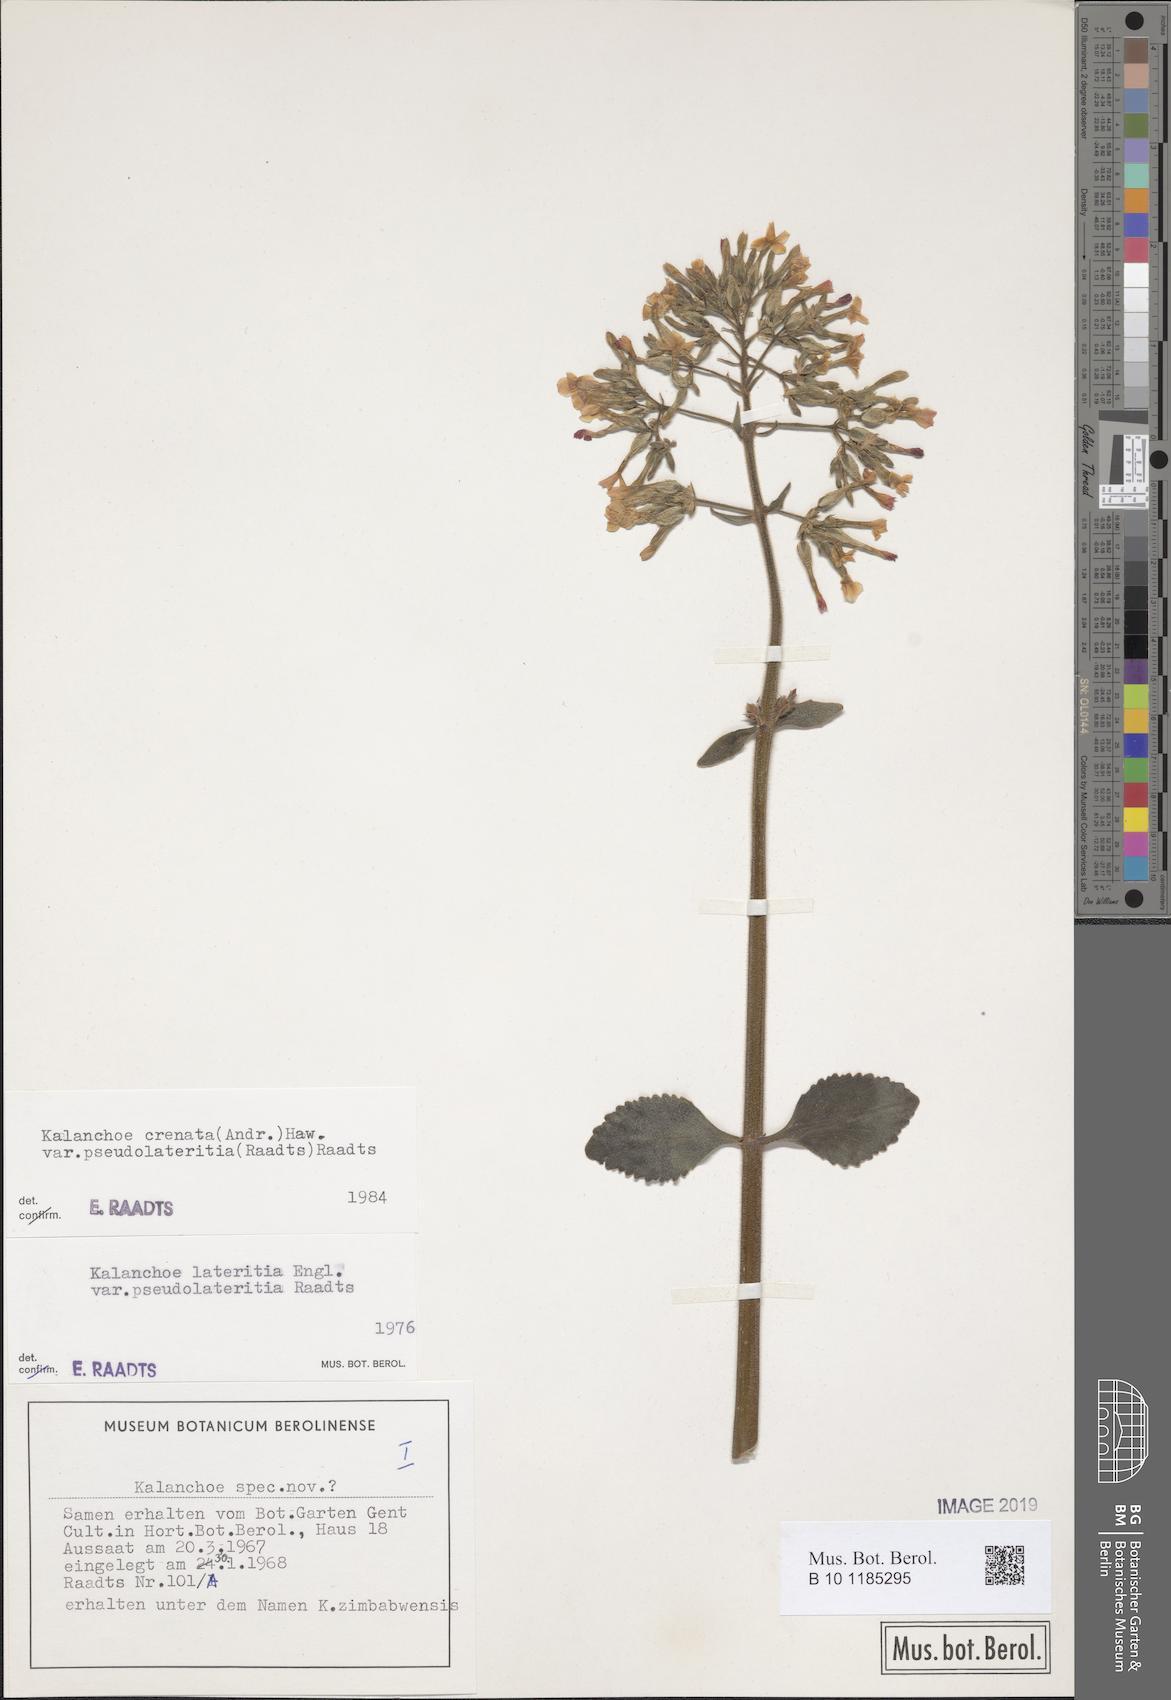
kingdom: Plantae
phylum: Tracheophyta
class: Magnoliopsida
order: Saxifragales
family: Crassulaceae
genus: Kalanchoe
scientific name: Kalanchoe lateritia
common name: Kalanchoe
